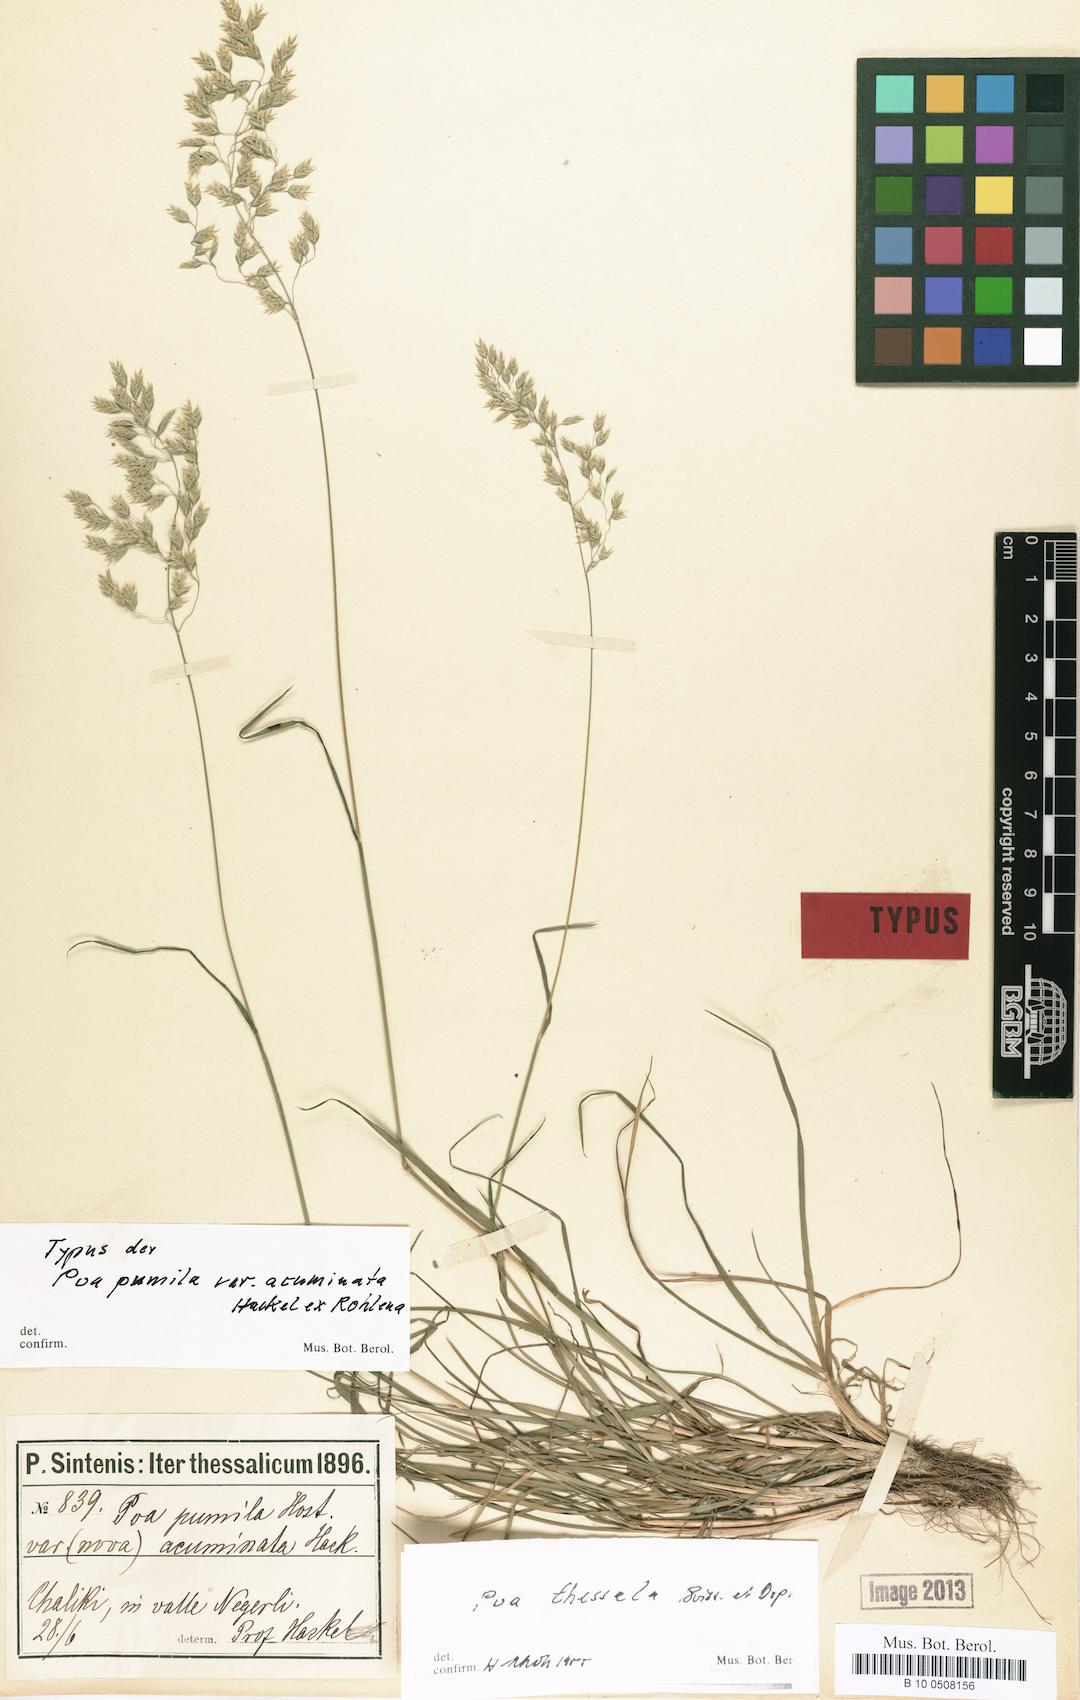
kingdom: Plantae
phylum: Tracheophyta
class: Liliopsida
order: Poales
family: Poaceae
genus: Poa
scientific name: Poa thessala
